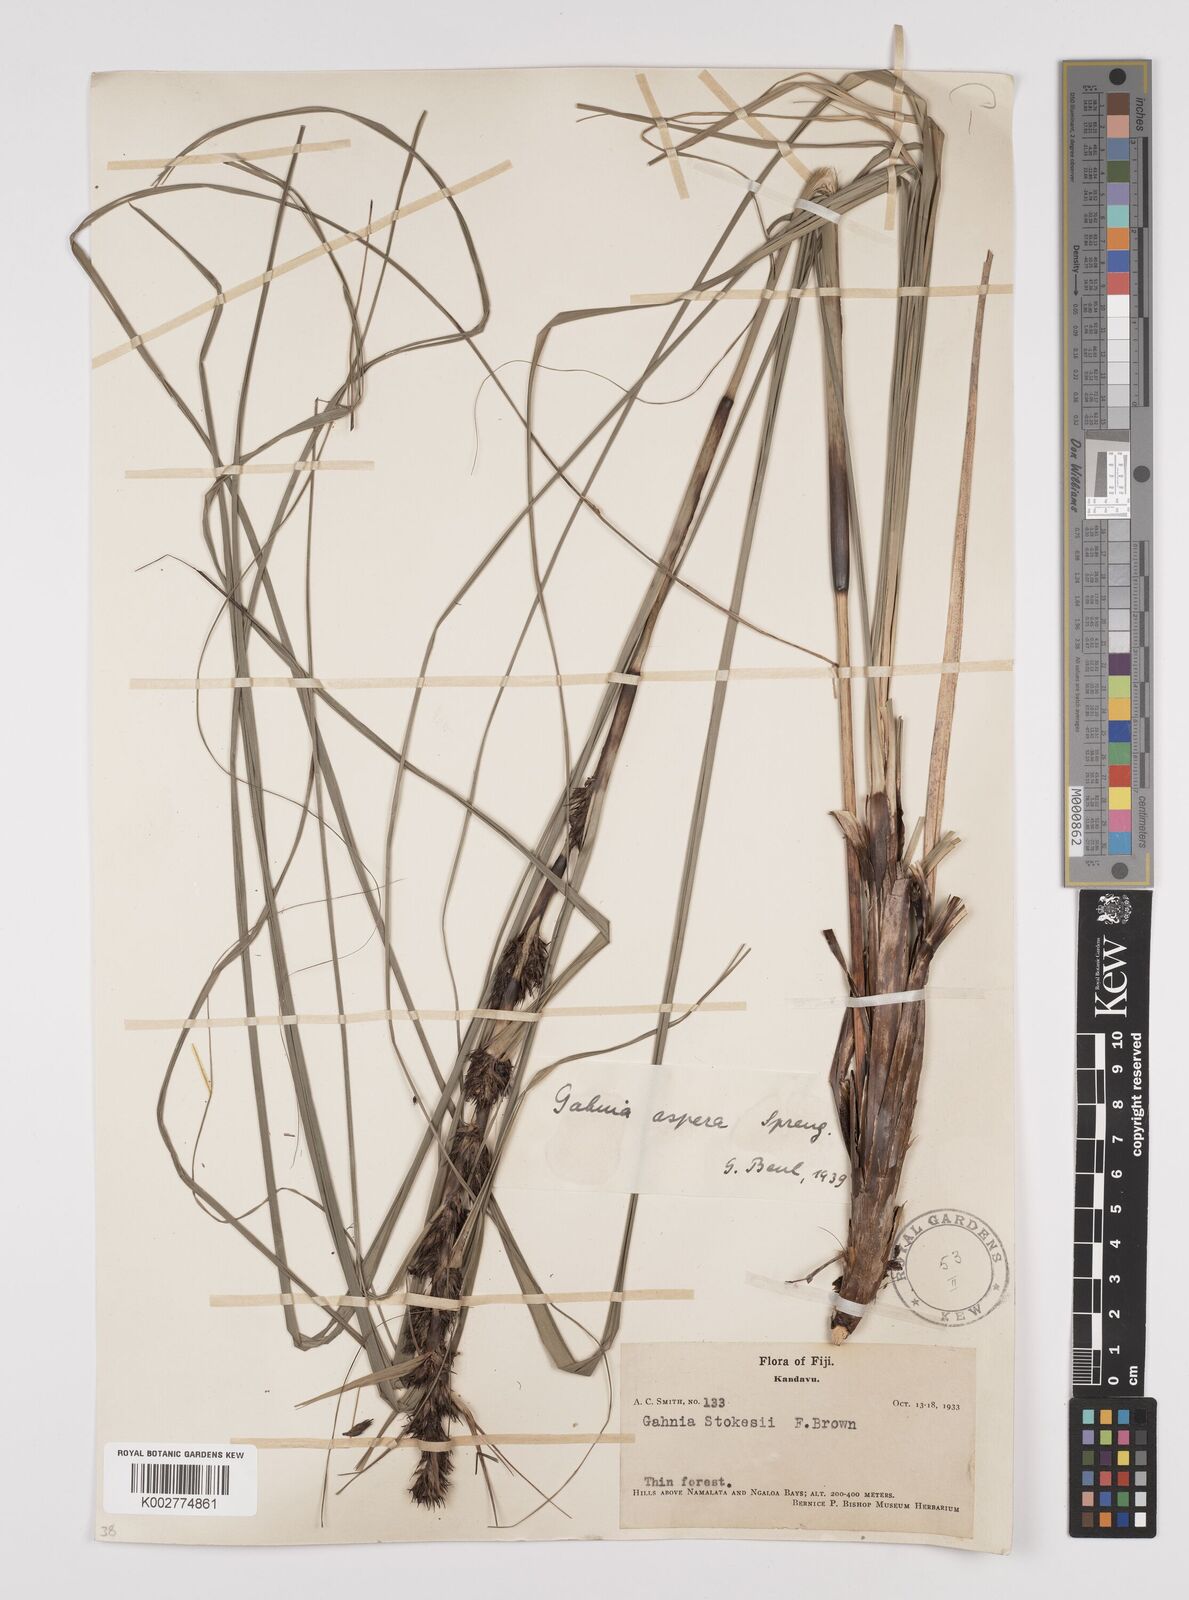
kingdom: Plantae
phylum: Tracheophyta
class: Liliopsida
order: Poales
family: Cyperaceae
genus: Gahnia
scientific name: Gahnia aspera
